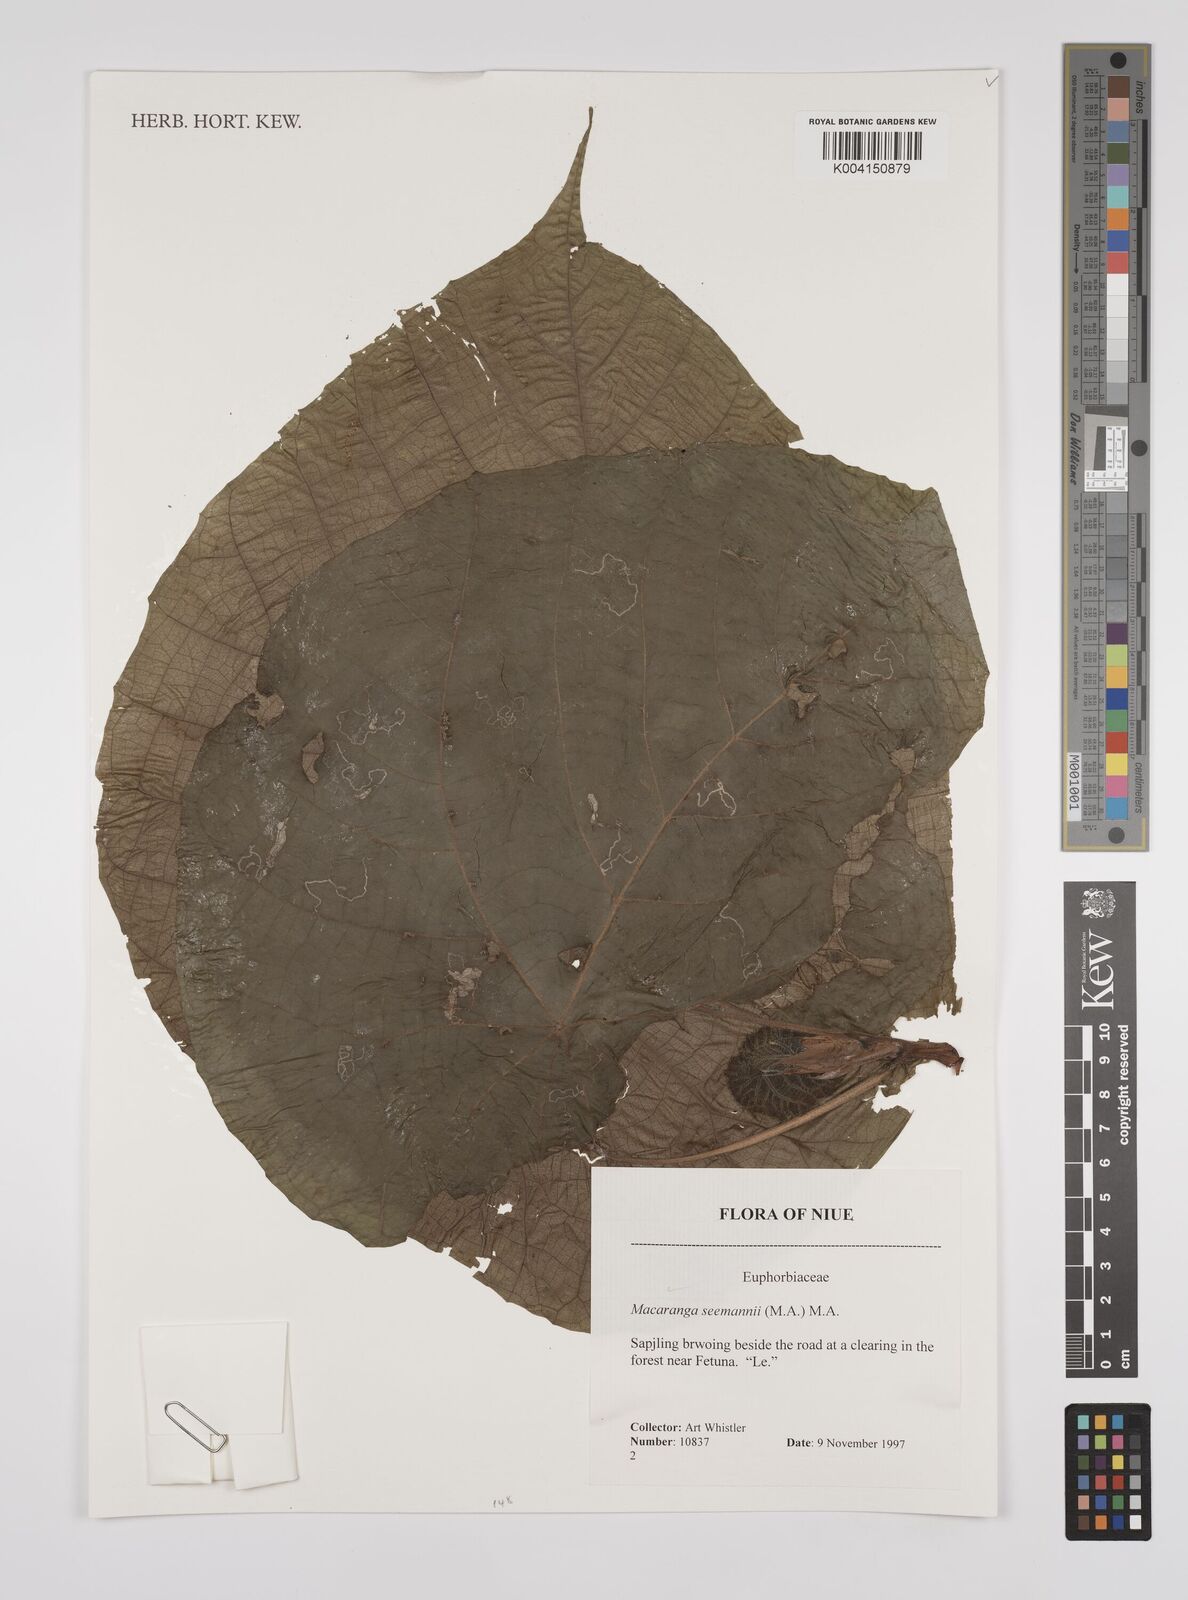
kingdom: Plantae
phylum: Tracheophyta
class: Magnoliopsida
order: Malpighiales
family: Euphorbiaceae
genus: Macaranga
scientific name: Macaranga seemannii
